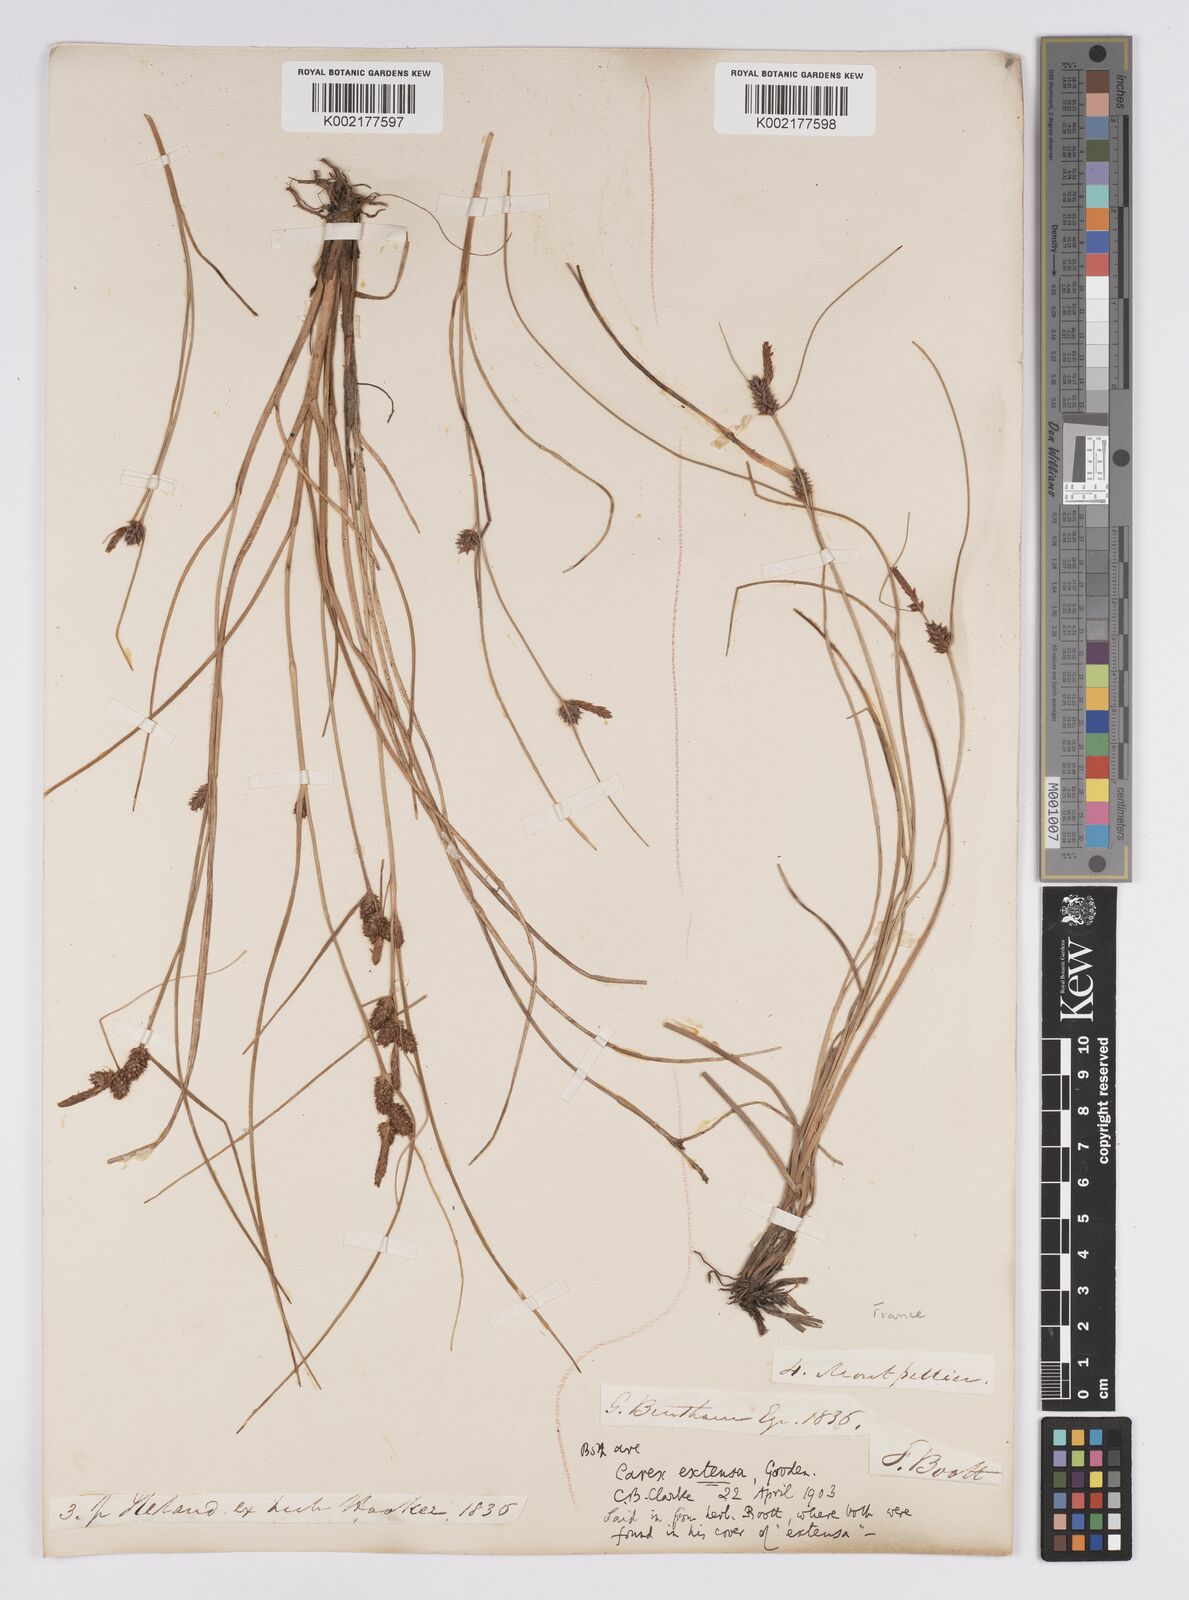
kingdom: Plantae
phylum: Tracheophyta
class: Liliopsida
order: Poales
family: Cyperaceae
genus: Carex
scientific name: Carex extensa
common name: Long-bracted sedge
